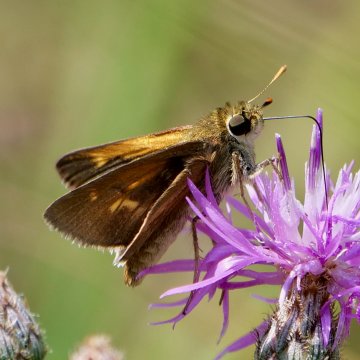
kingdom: Animalia
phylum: Arthropoda
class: Insecta
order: Lepidoptera
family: Hesperiidae
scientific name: Hesperiidae
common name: Skippers
